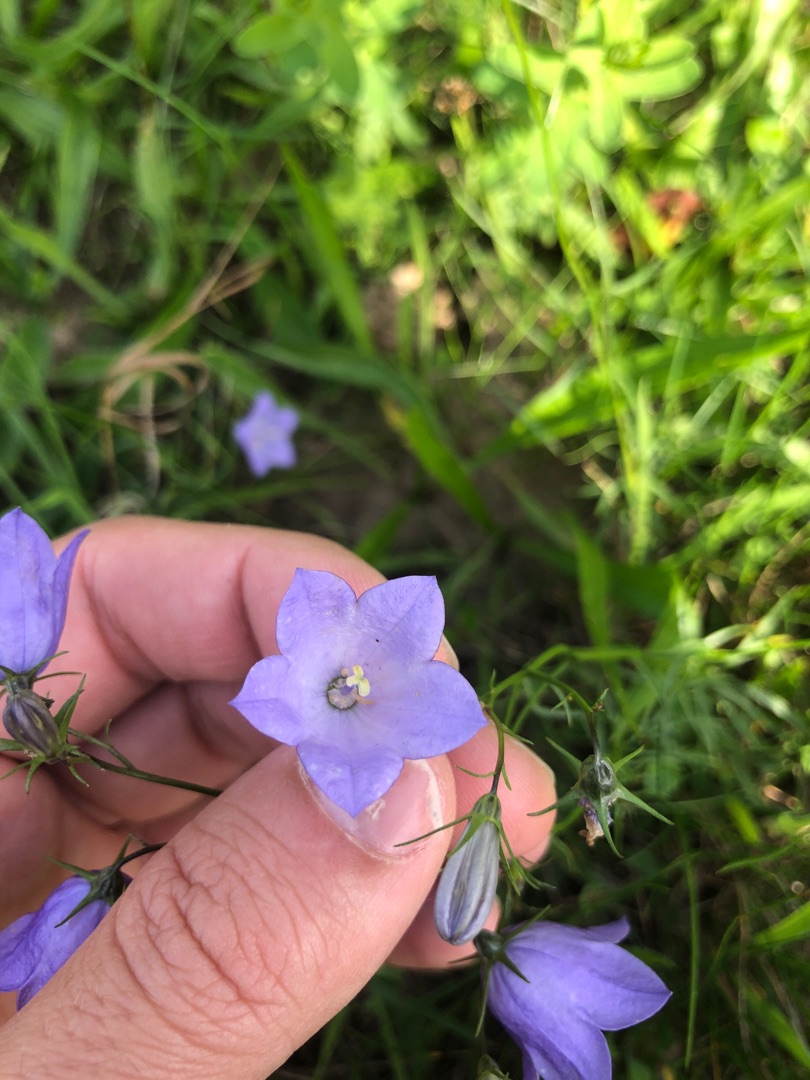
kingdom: Plantae
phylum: Tracheophyta
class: Magnoliopsida
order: Asterales
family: Campanulaceae
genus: Campanula
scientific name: Campanula rotundifolia
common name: Liden klokke
